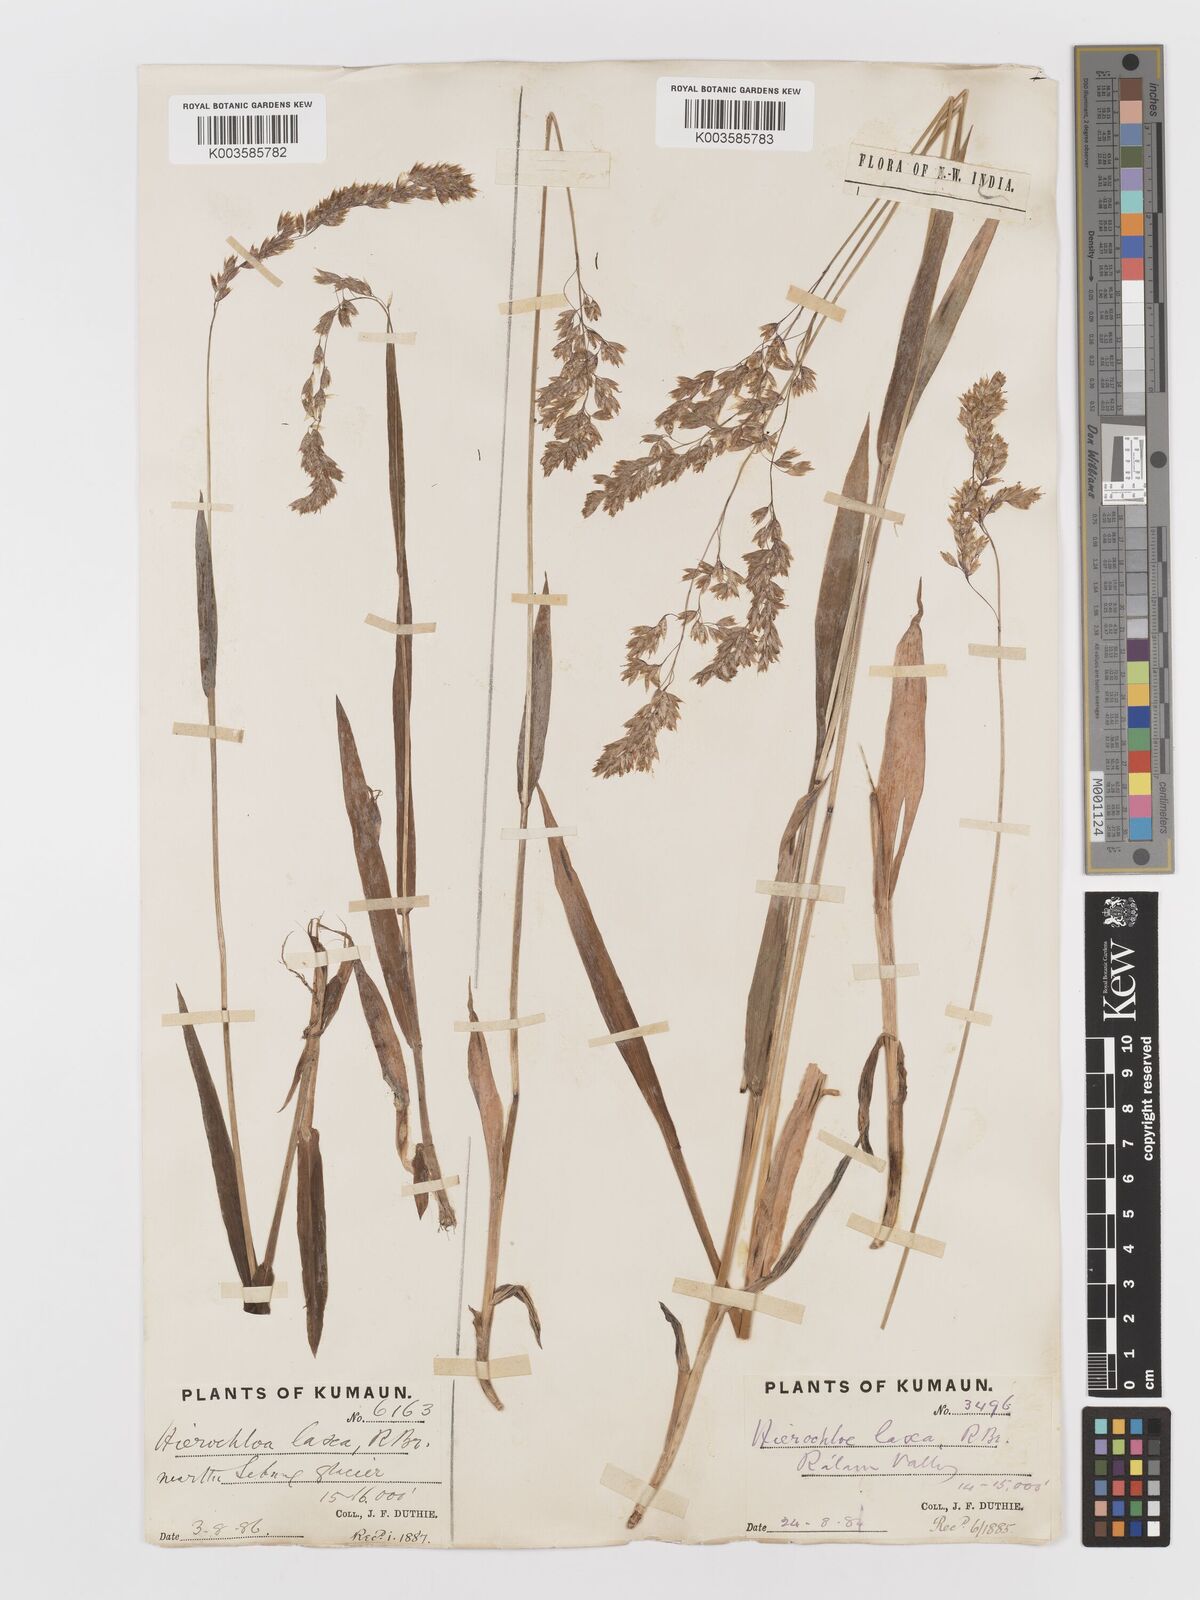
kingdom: Plantae
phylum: Tracheophyta
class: Liliopsida
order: Poales
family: Poaceae
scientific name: Poaceae
